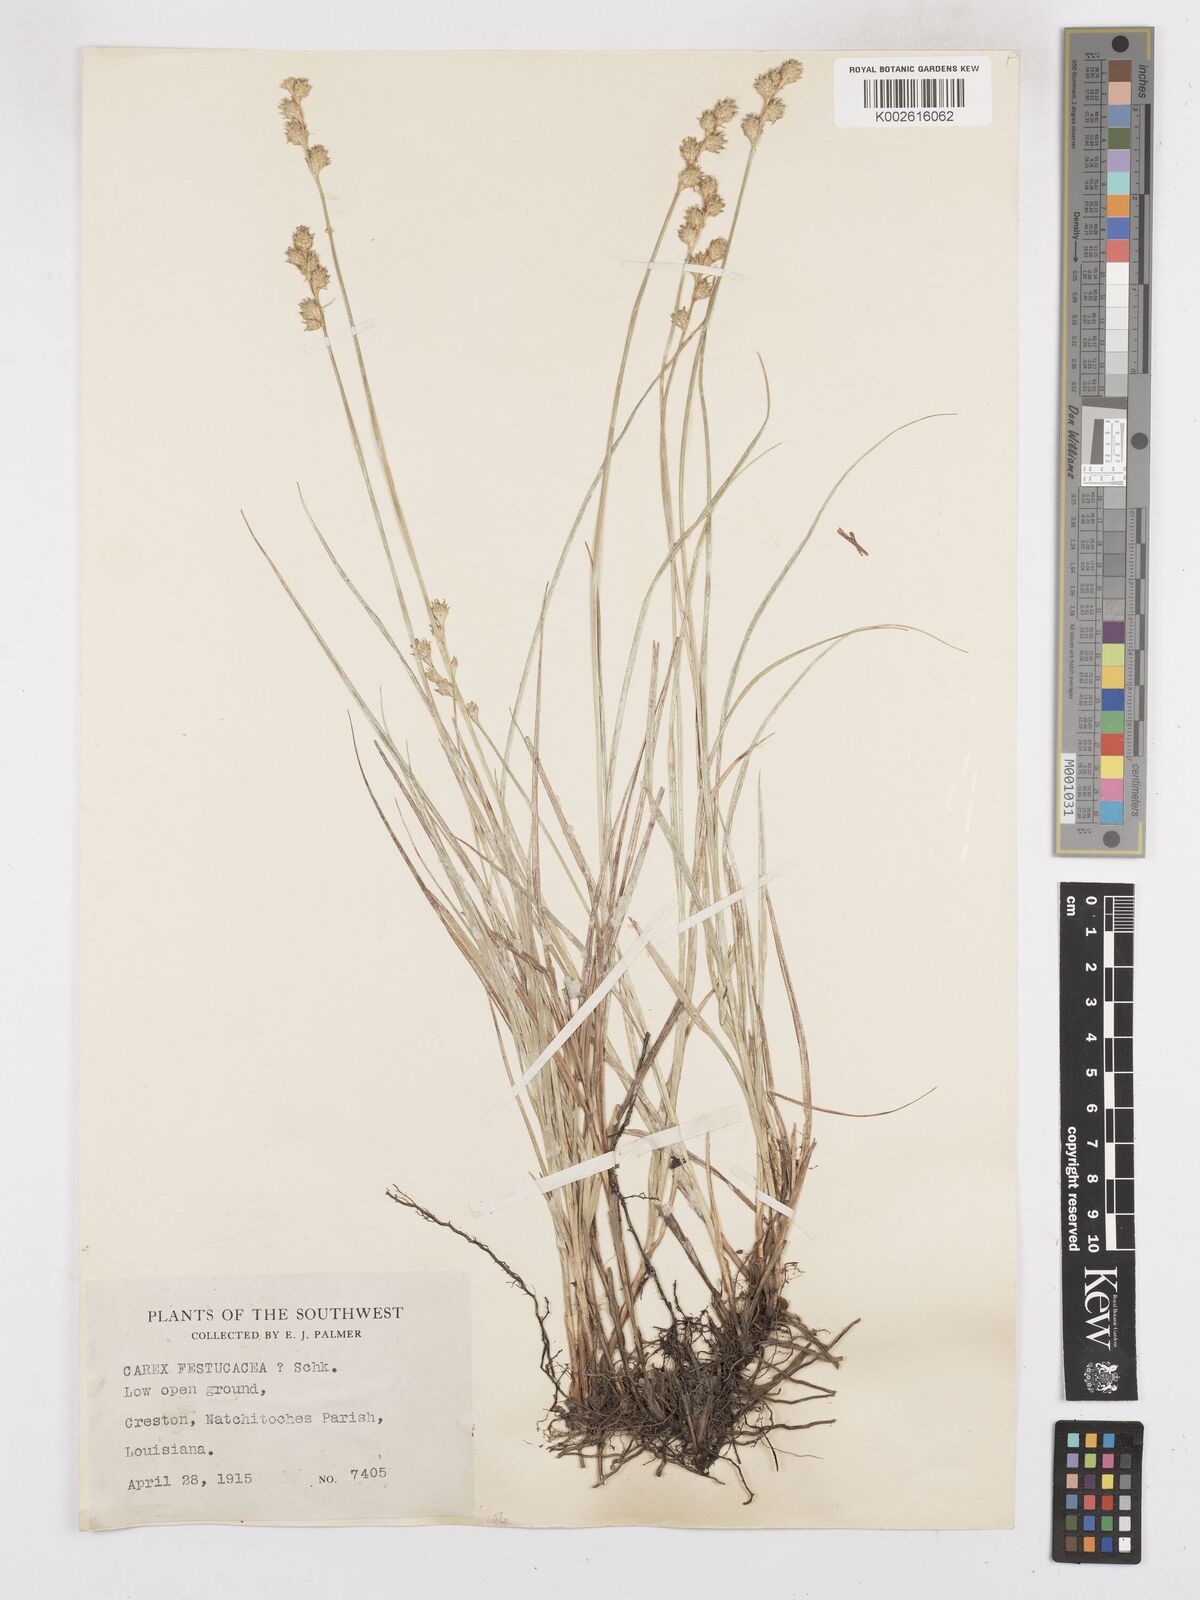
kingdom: Plantae
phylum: Tracheophyta
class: Liliopsida
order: Poales
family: Cyperaceae
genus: Carex
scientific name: Carex festucacea
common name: Fescue oval sedge
